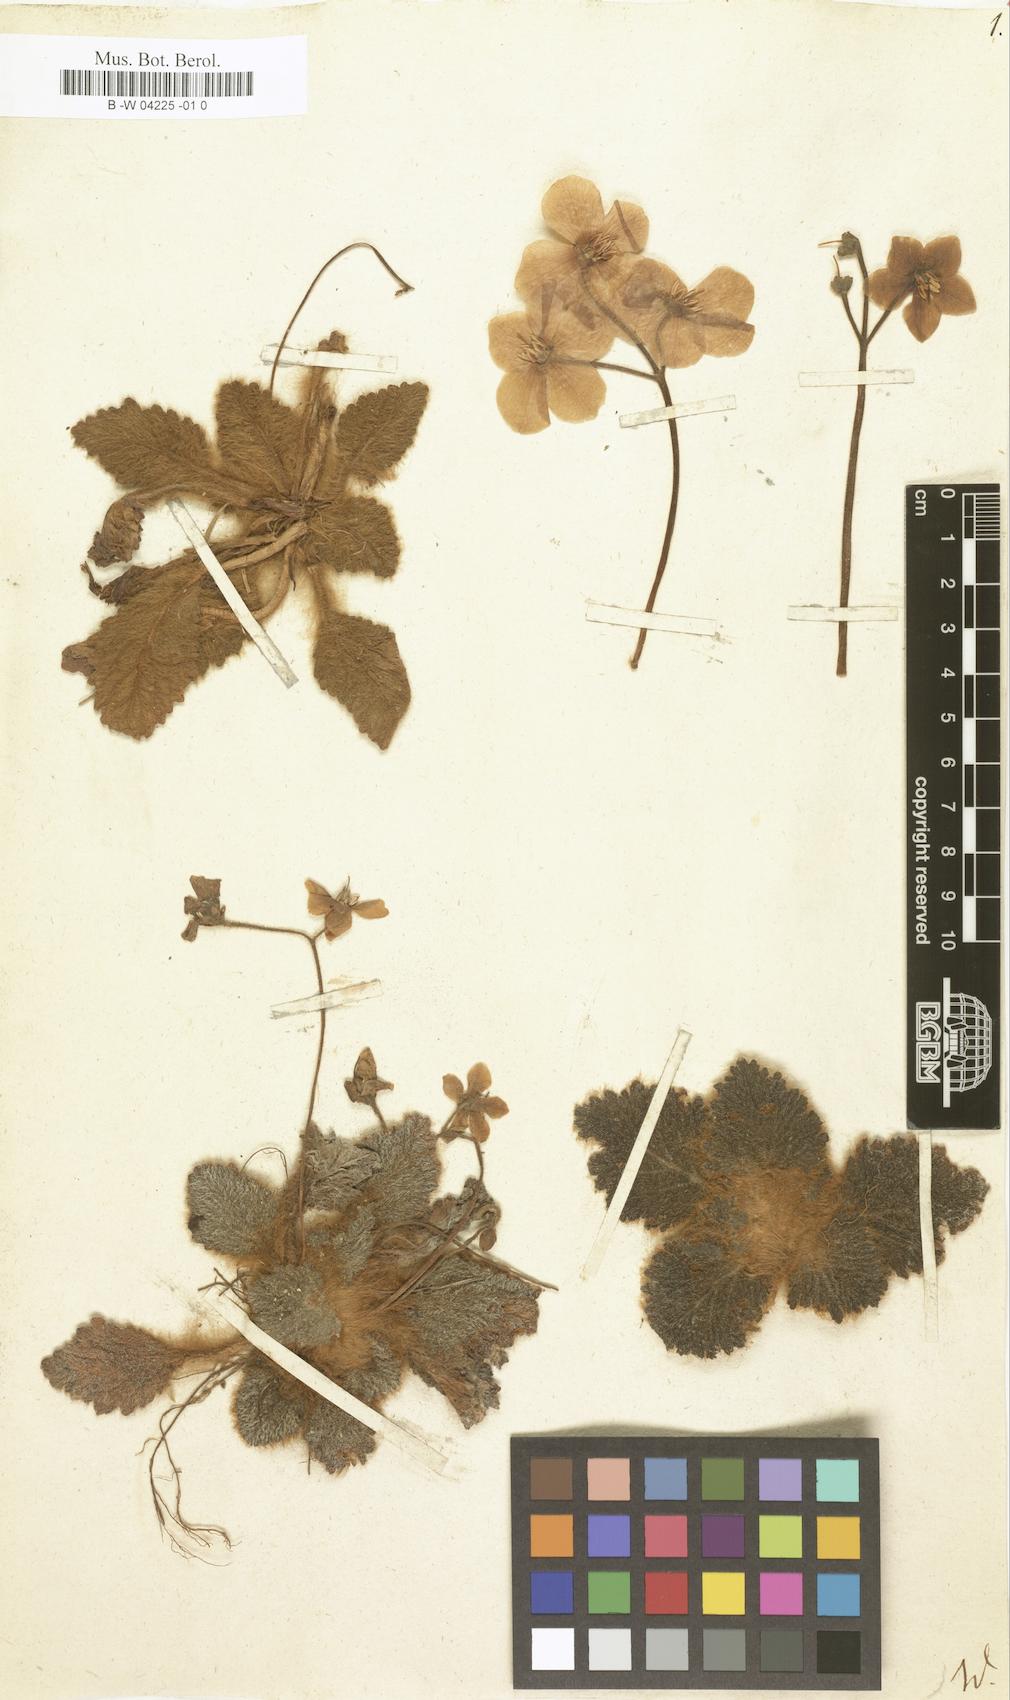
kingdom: Plantae
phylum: Tracheophyta
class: Magnoliopsida
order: Lamiales
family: Gesneriaceae
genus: Ramonda
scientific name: Ramonda myconi
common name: Pyrenean-violet
